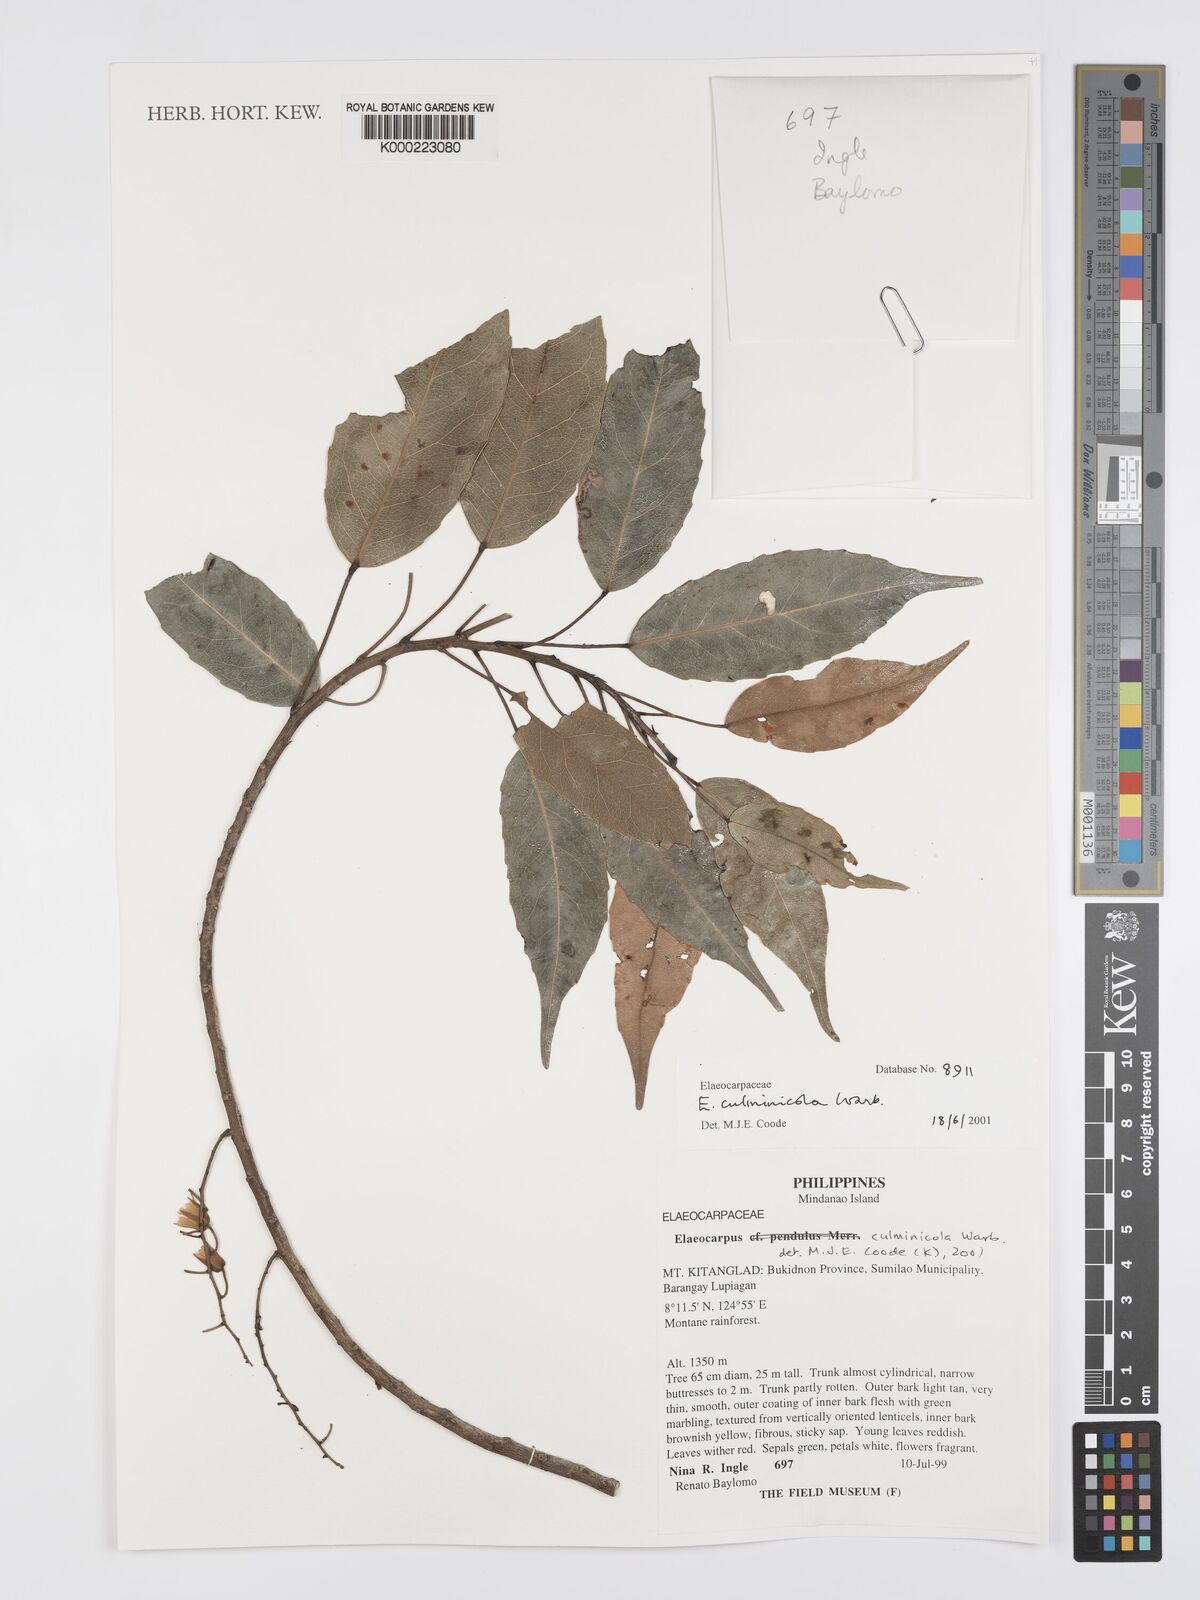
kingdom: Plantae
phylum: Tracheophyta
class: Magnoliopsida
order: Oxalidales
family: Elaeocarpaceae
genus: Elaeocarpus
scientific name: Elaeocarpus culminicola
